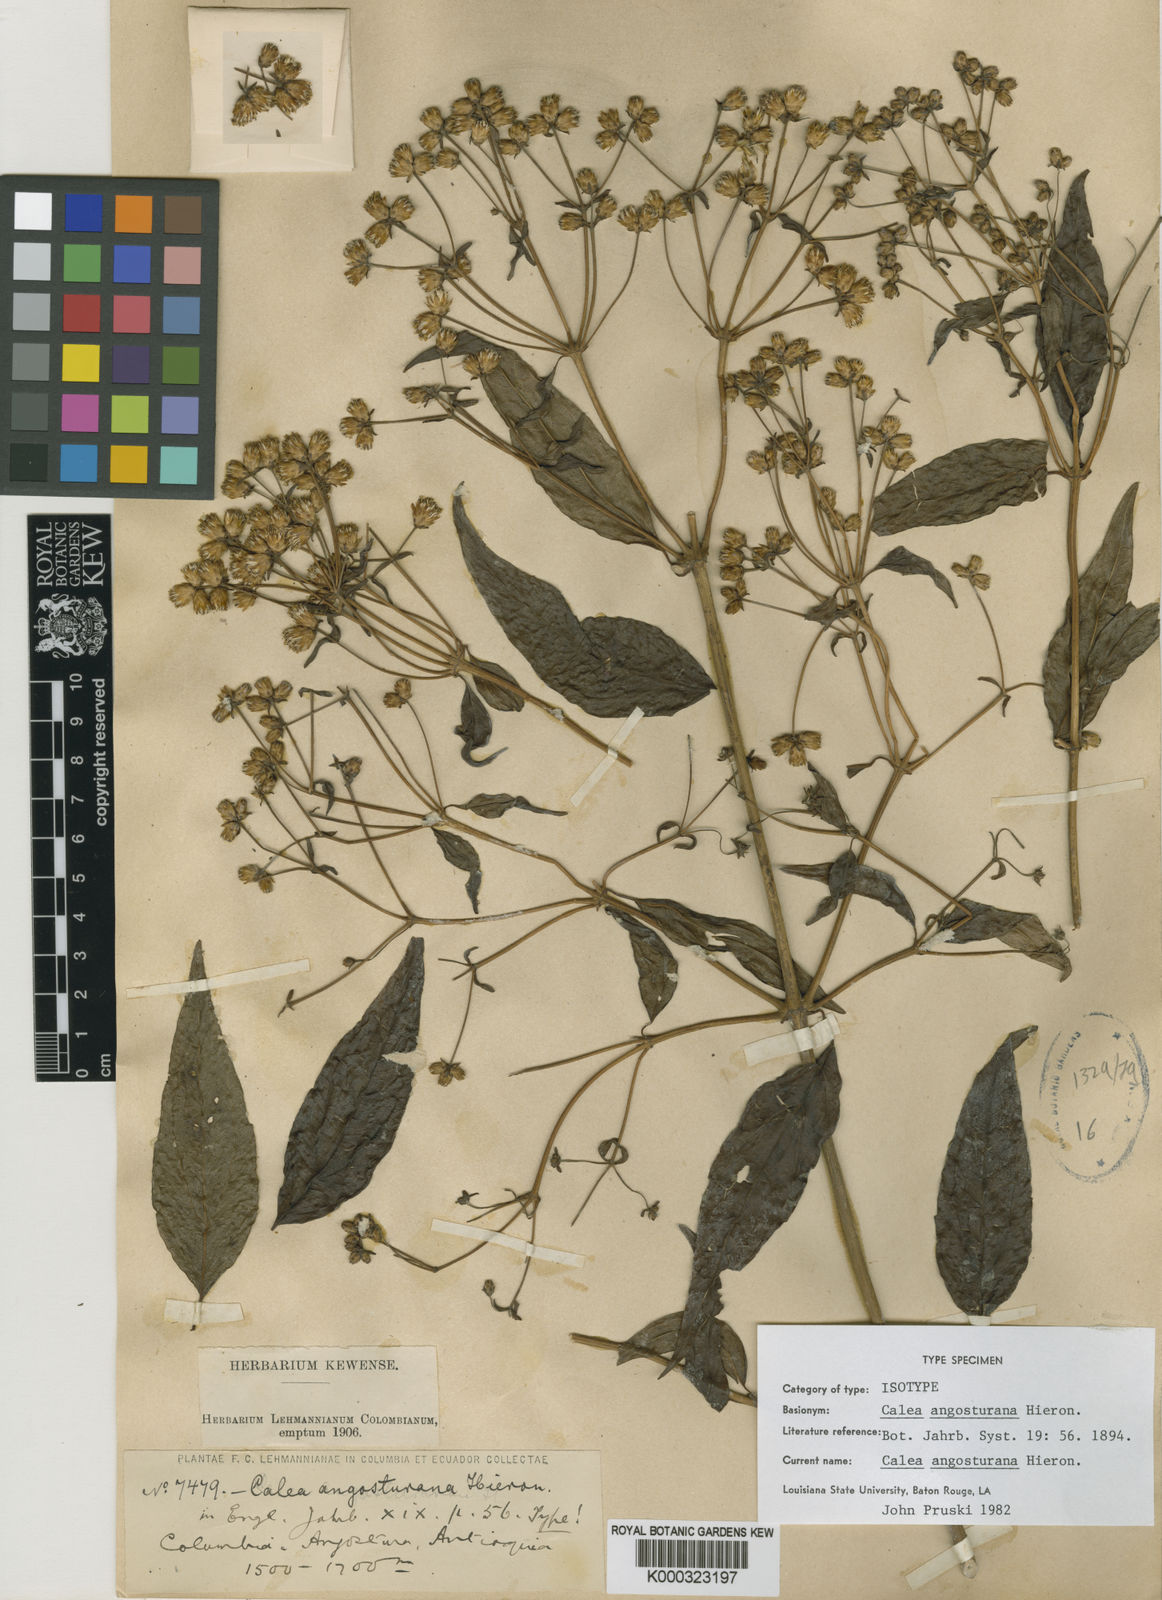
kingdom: Plantae
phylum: Tracheophyta
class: Magnoliopsida
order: Asterales
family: Asteraceae
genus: Calea
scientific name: Calea angosturana
